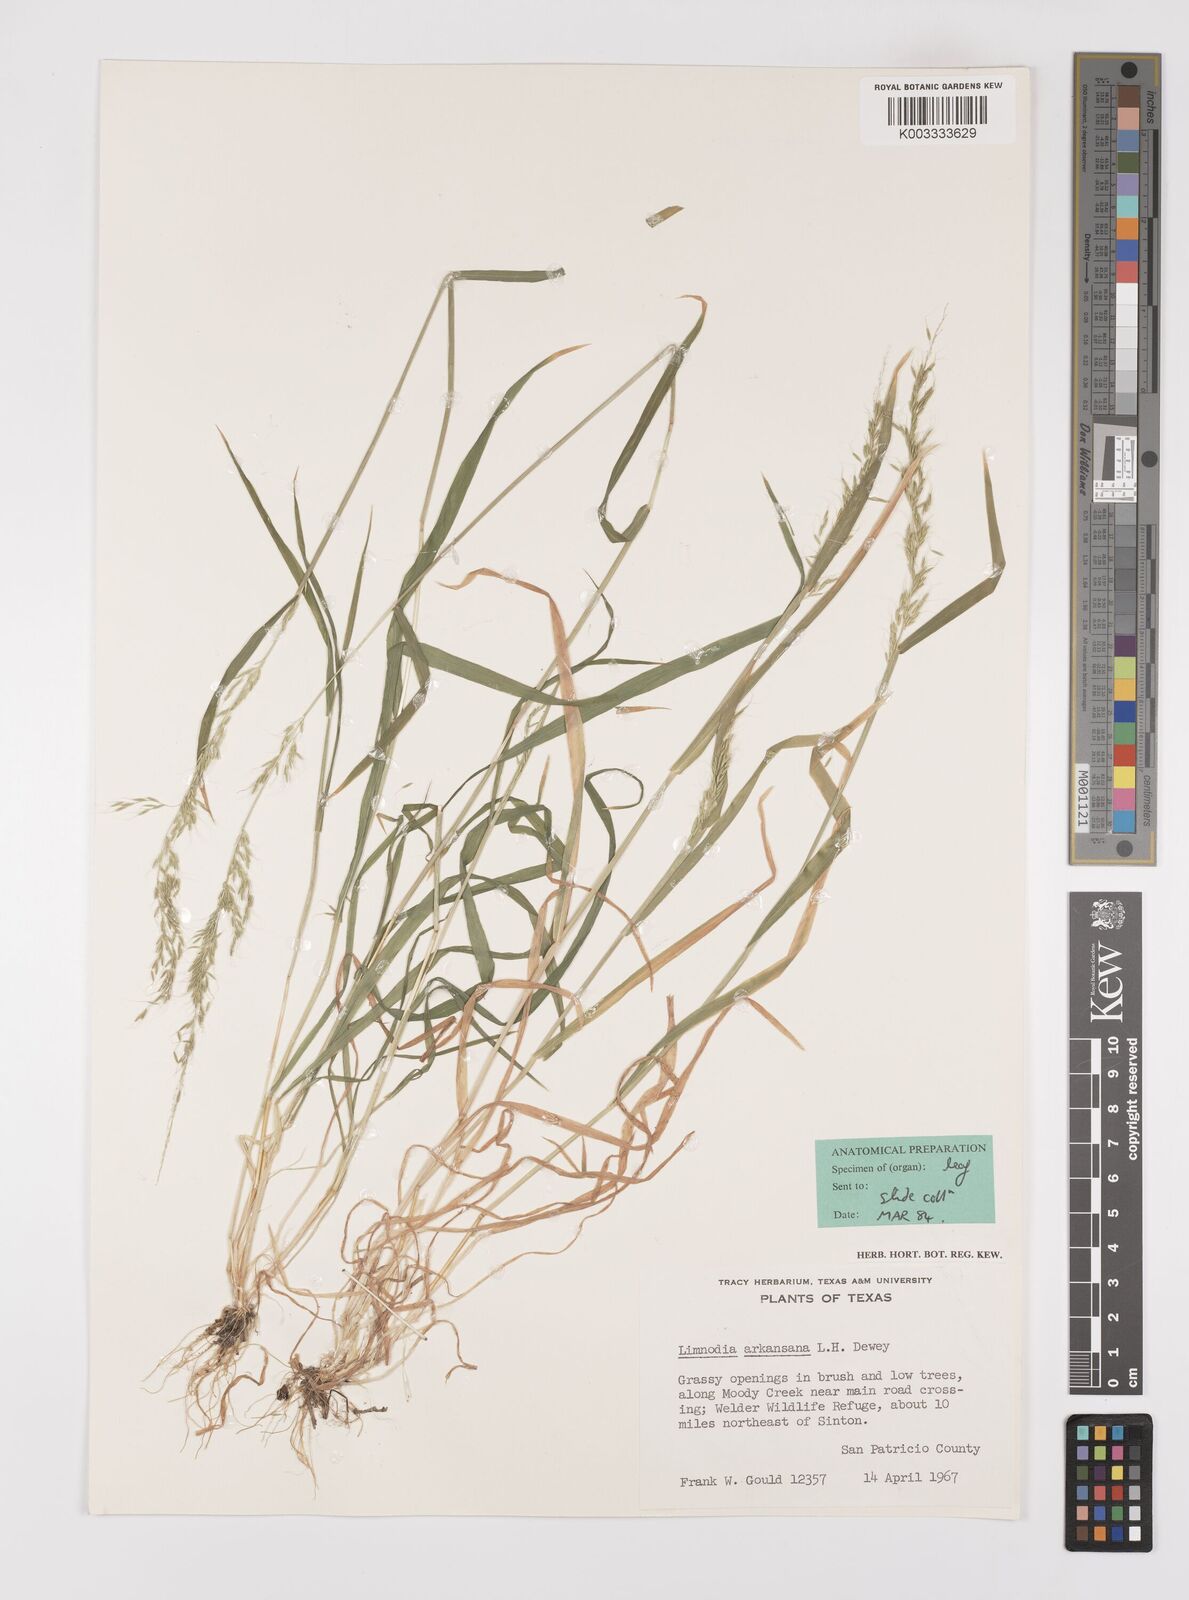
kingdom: Plantae
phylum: Tracheophyta
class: Liliopsida
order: Poales
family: Poaceae
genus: Limnodea
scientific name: Limnodea arkansana
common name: Ozark-grass
